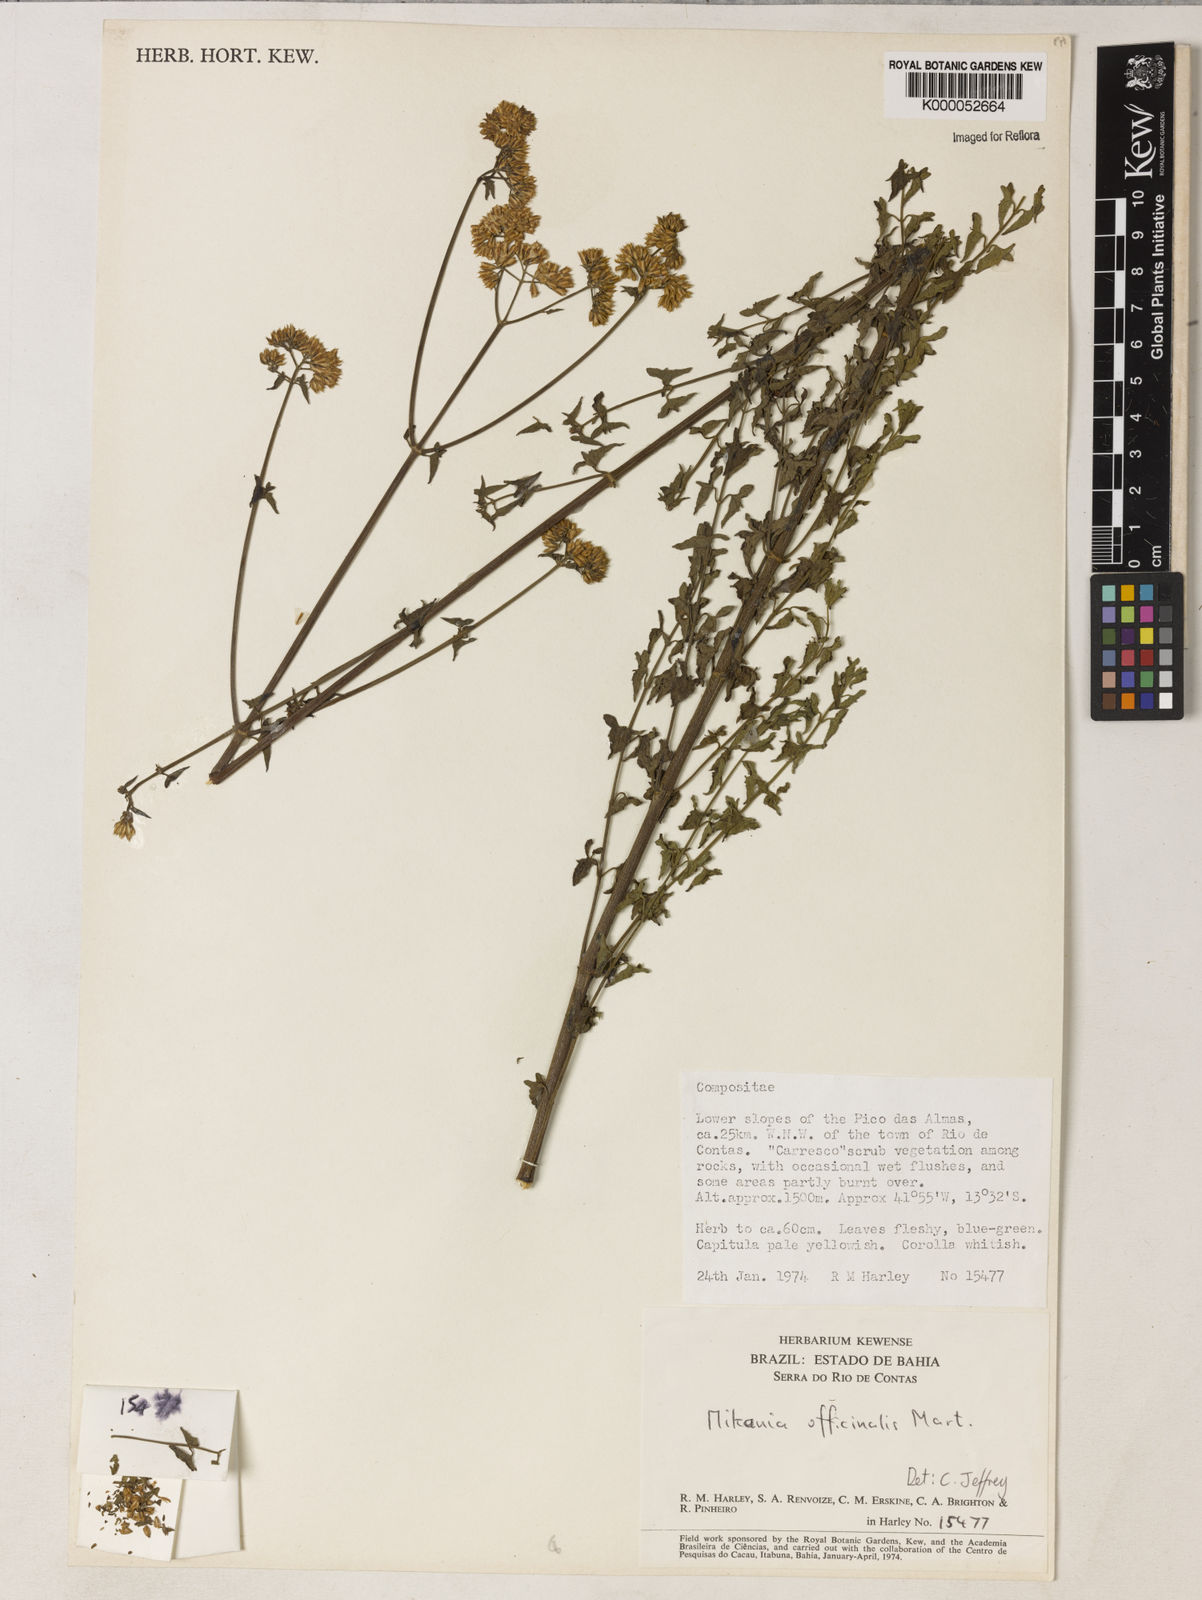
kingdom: Plantae
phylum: Tracheophyta
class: Magnoliopsida
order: Asterales
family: Asteraceae
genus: Mikania
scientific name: Mikania officinalis
